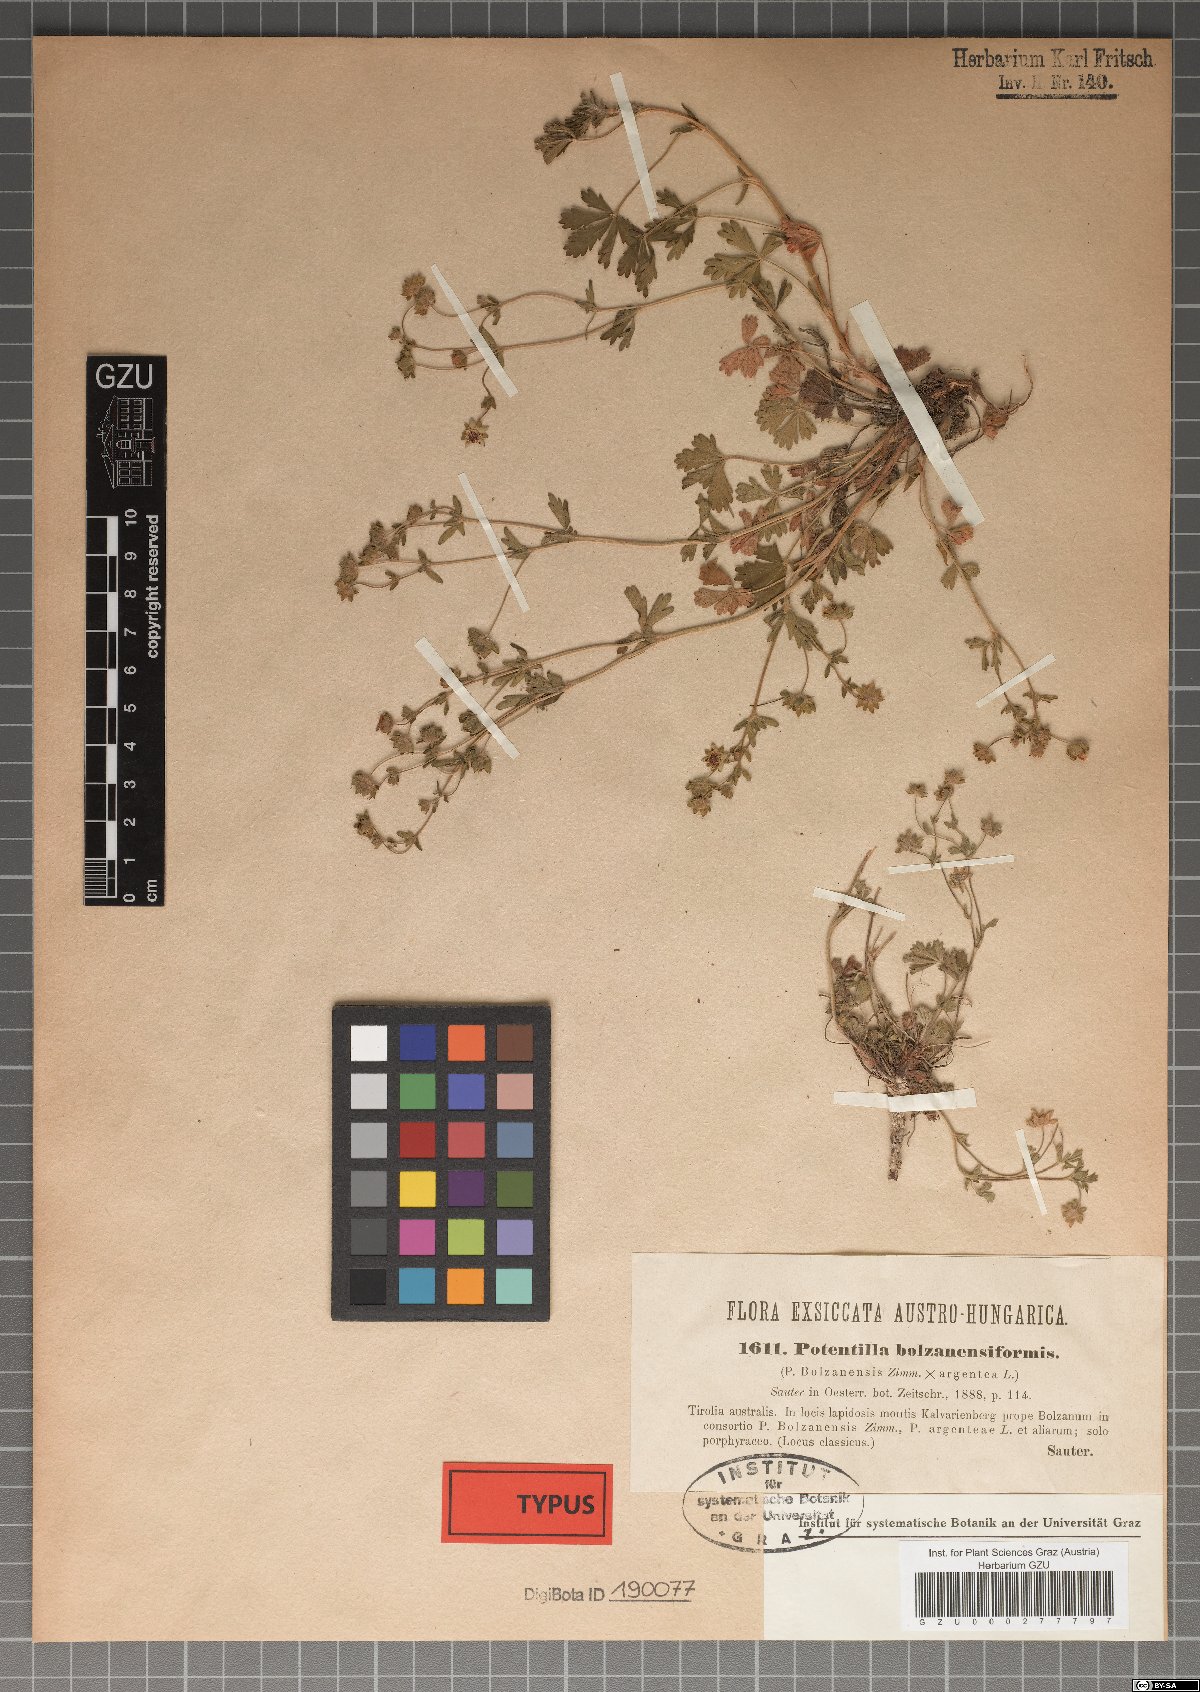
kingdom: Plantae
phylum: Tracheophyta
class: Magnoliopsida
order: Rosales
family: Rosaceae
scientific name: Rosaceae
